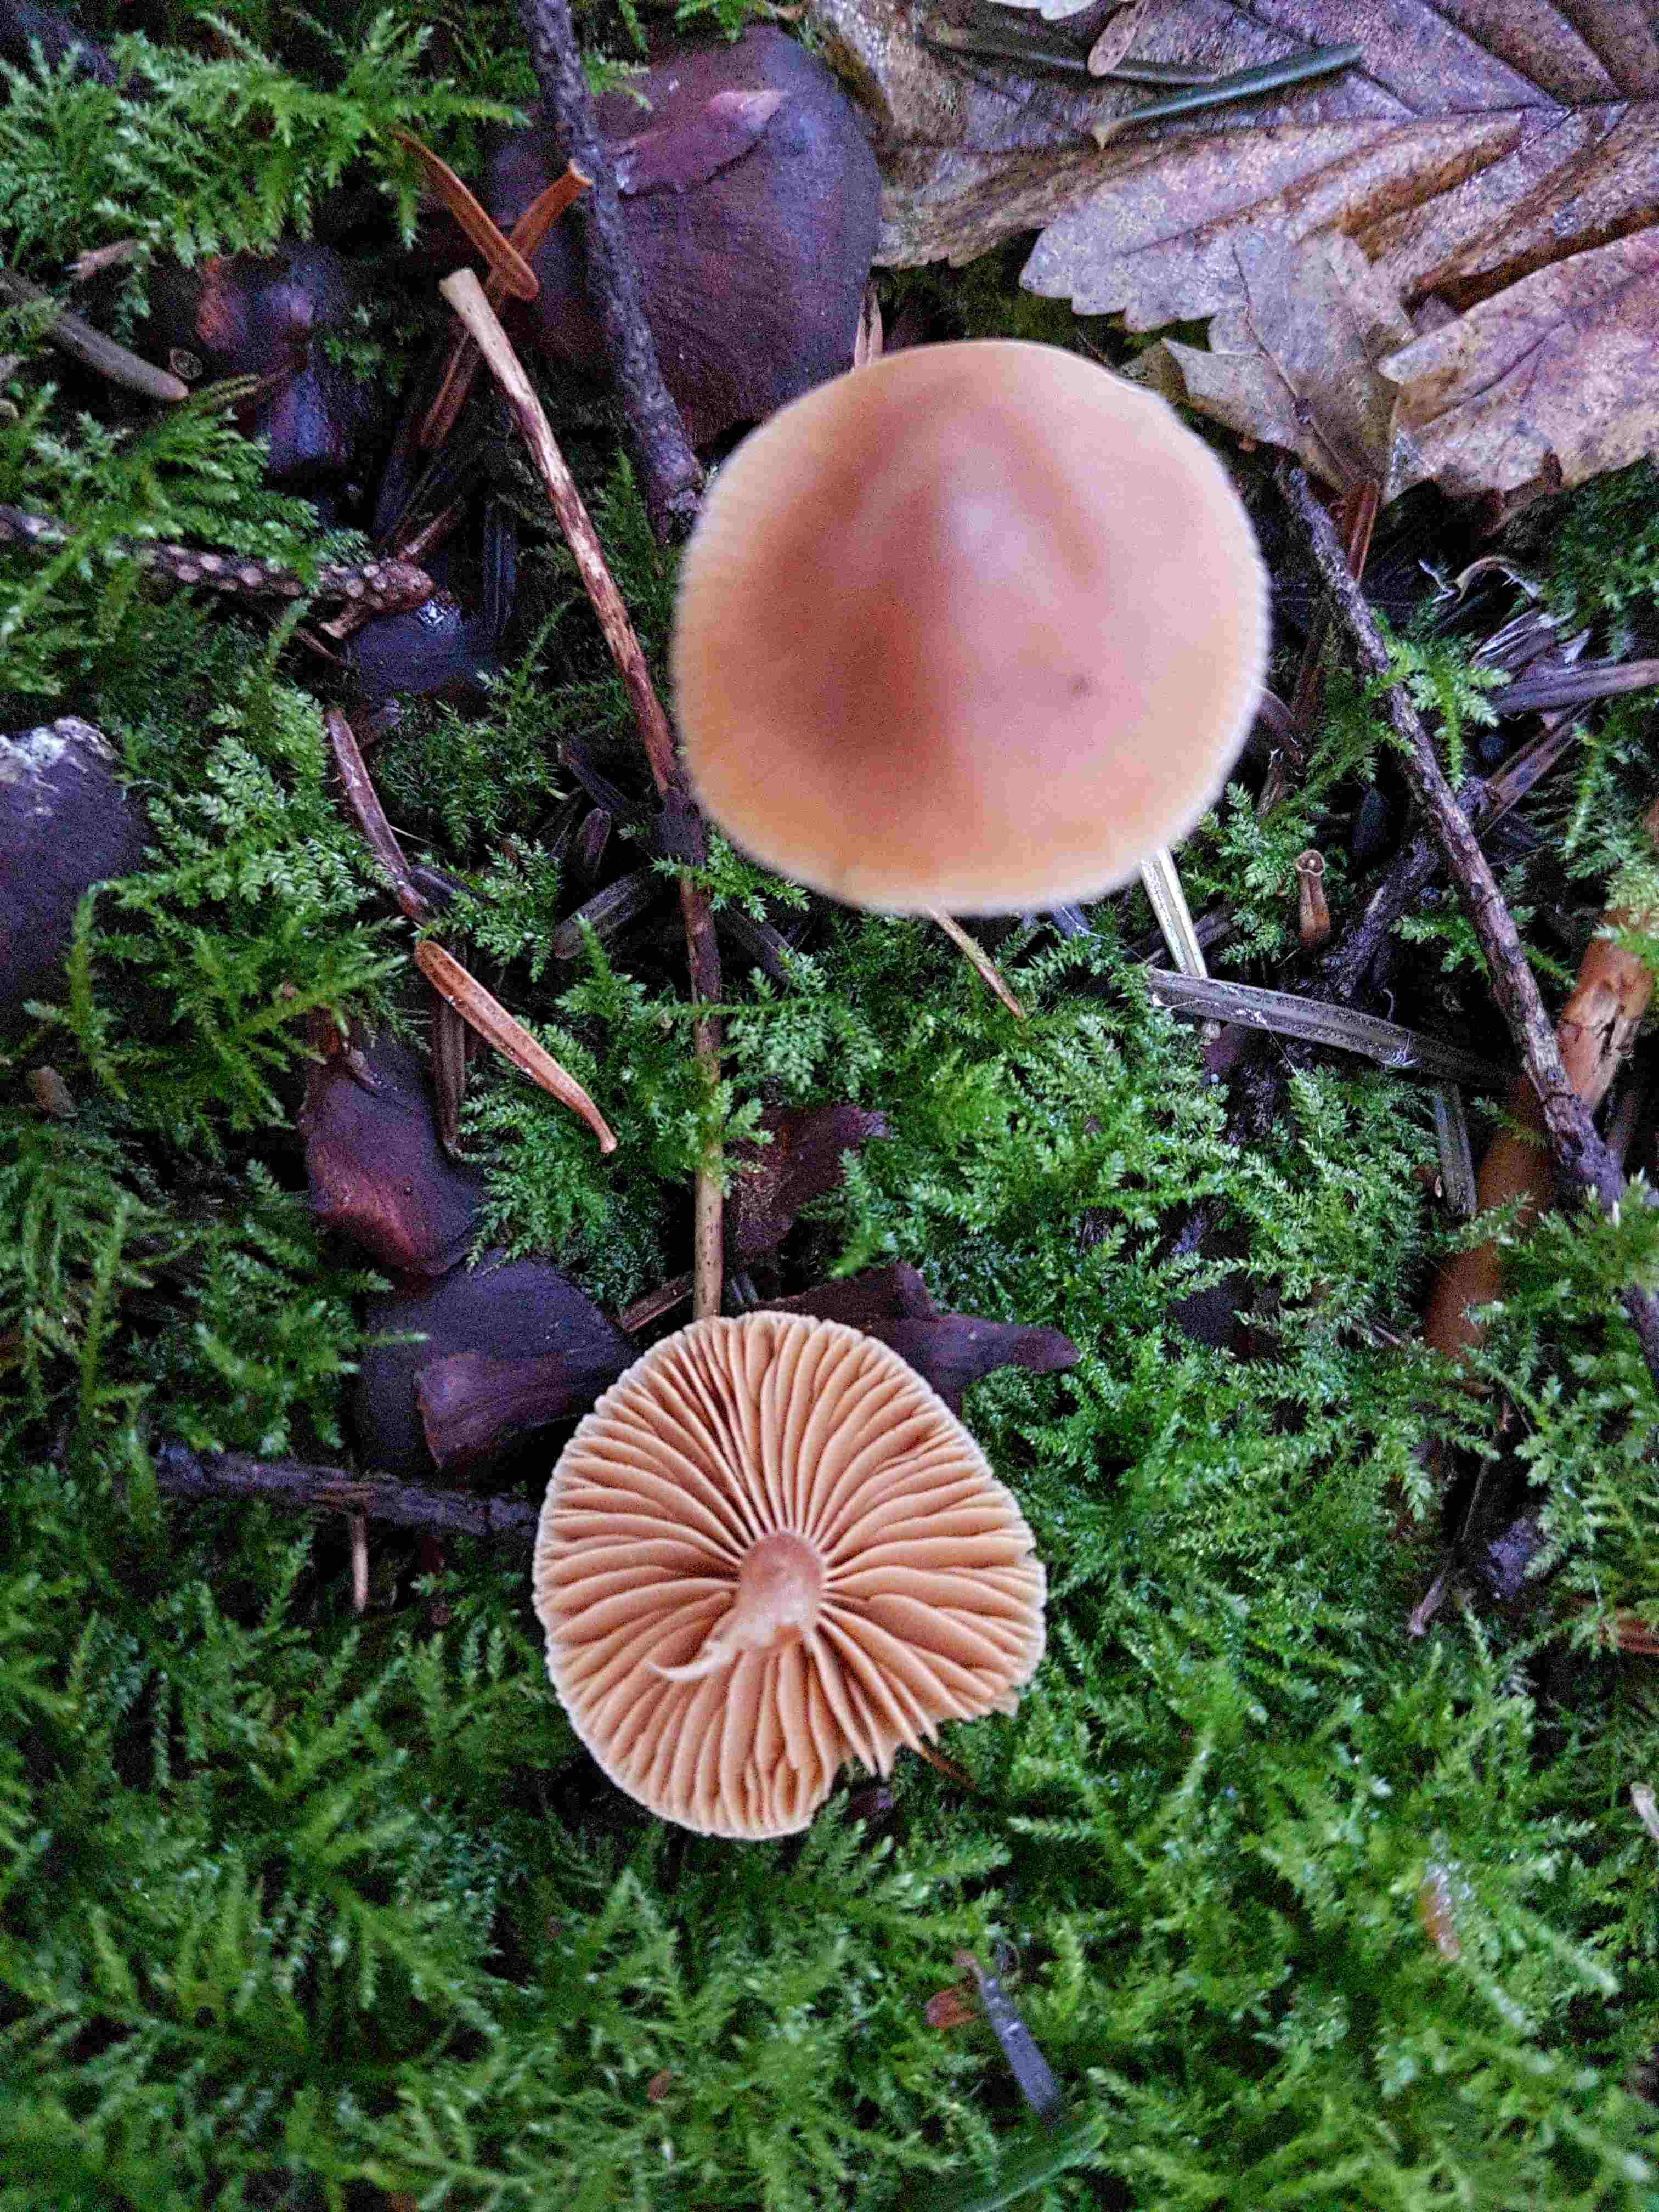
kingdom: Fungi
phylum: Basidiomycota
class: Agaricomycetes
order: Agaricales
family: Cortinariaceae
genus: Cortinarius
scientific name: Cortinarius
